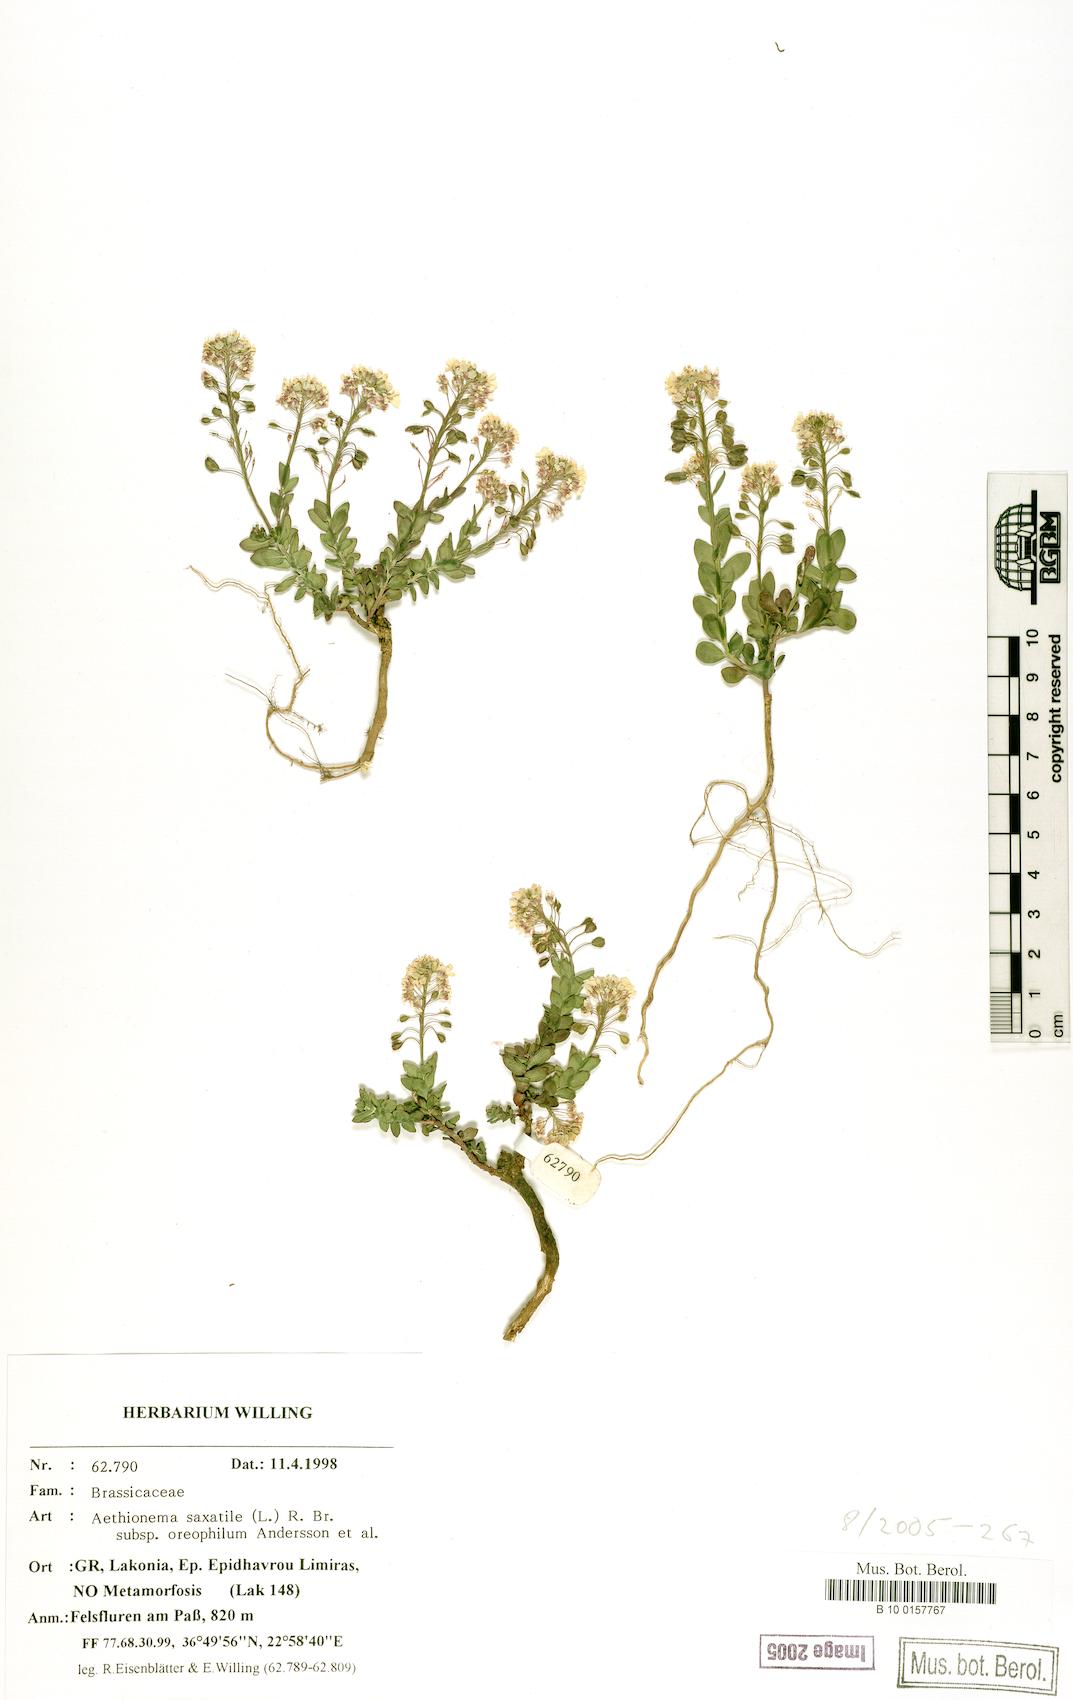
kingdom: Plantae
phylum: Tracheophyta
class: Magnoliopsida
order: Brassicales
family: Brassicaceae
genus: Aethionema
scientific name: Aethionema saxatile
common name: Burnt candytuft
